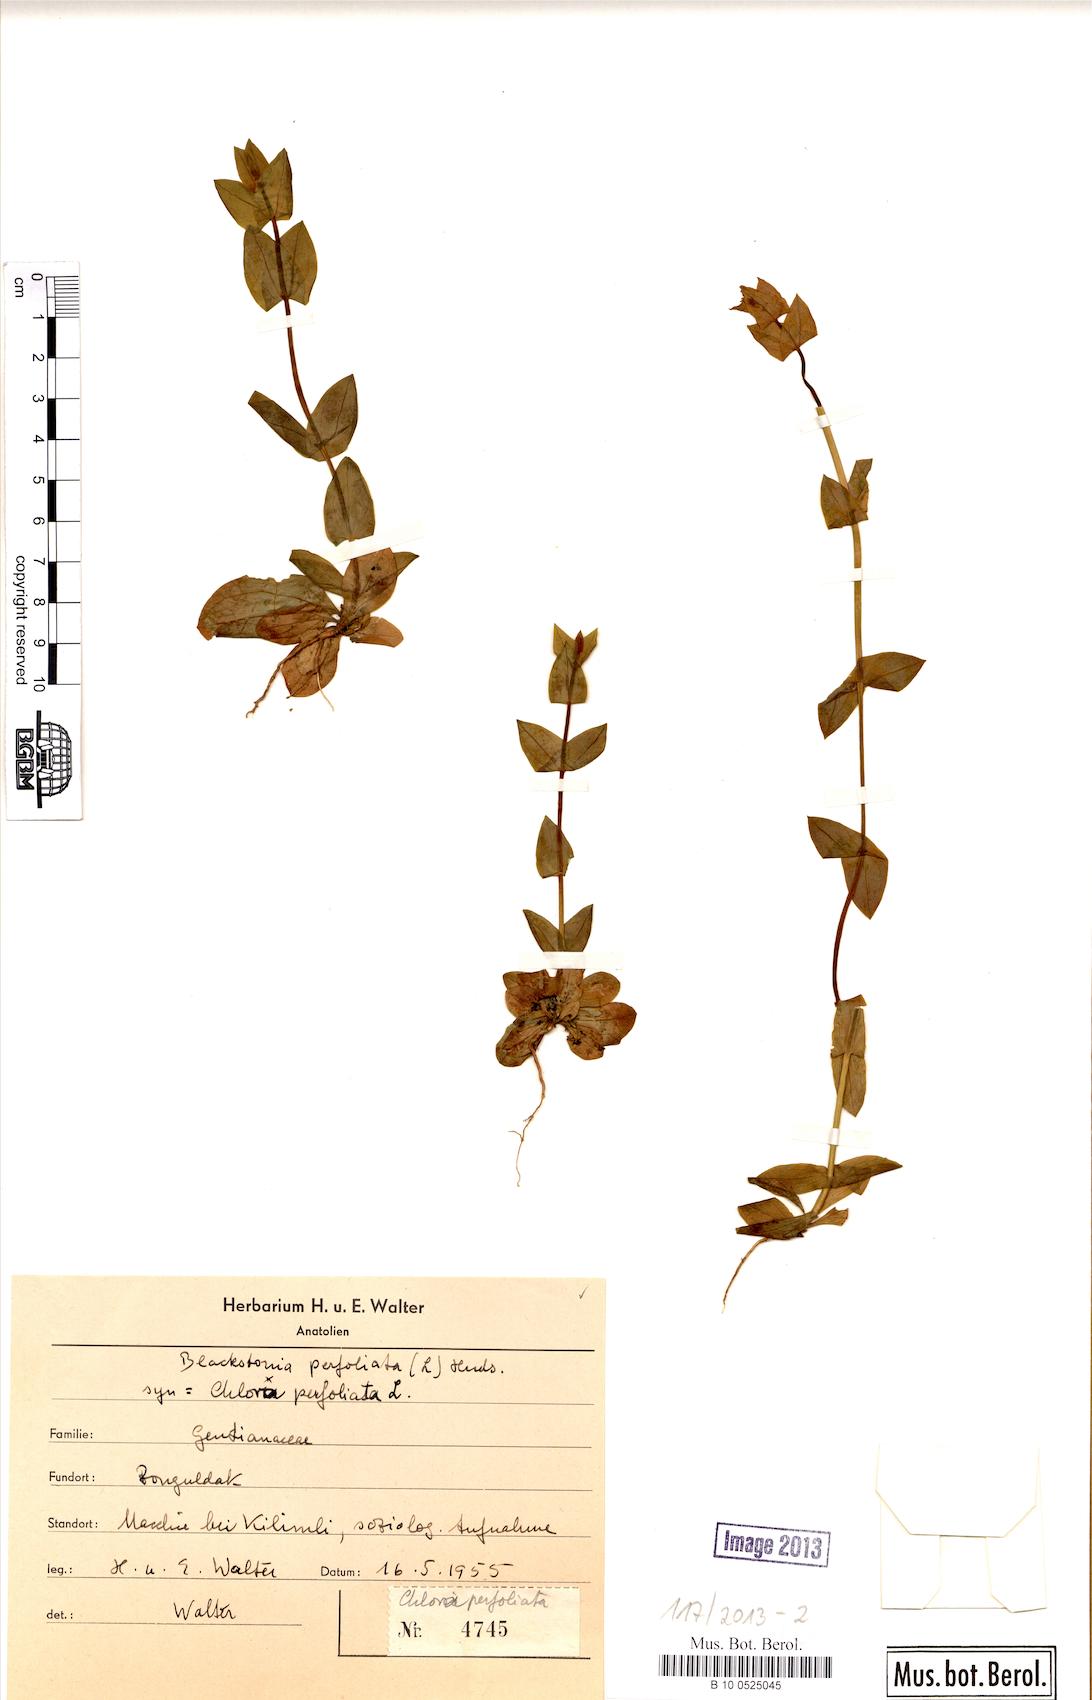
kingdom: Plantae
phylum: Tracheophyta
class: Magnoliopsida
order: Gentianales
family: Gentianaceae
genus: Blackstonia
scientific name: Blackstonia perfoliata
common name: Yellow-wort
